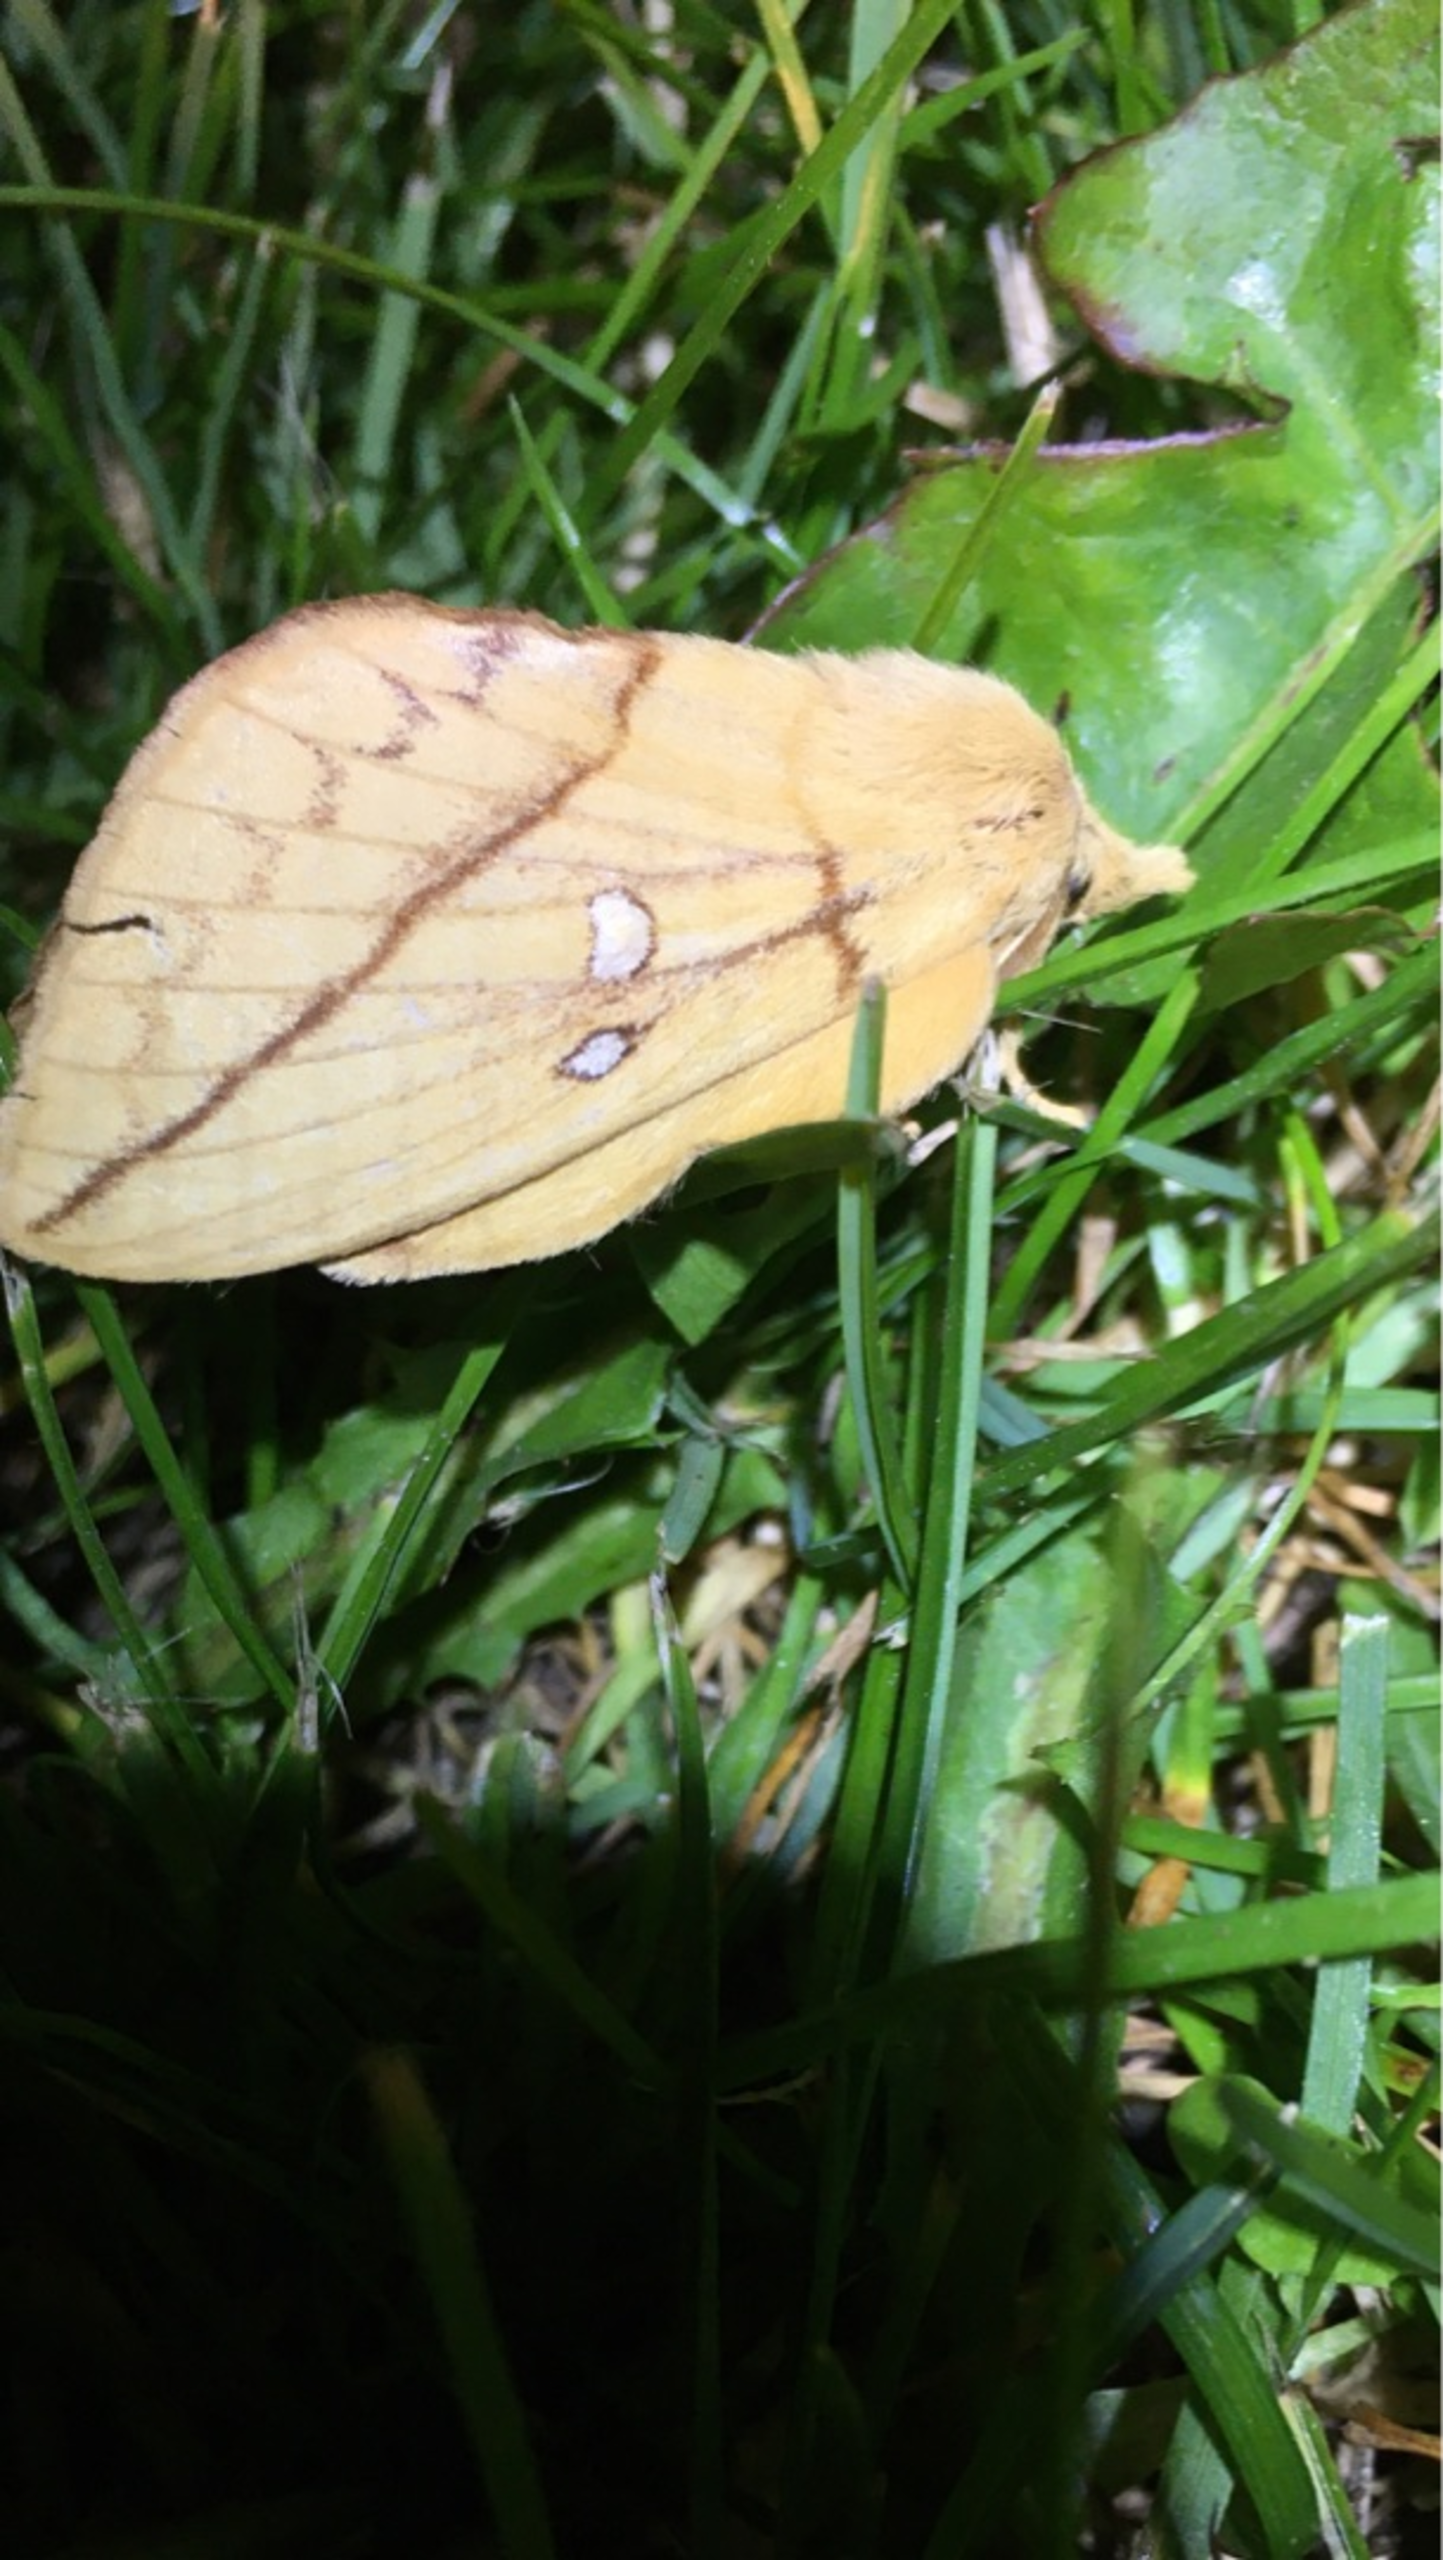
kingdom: Animalia
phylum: Arthropoda
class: Insecta
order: Lepidoptera
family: Lasiocampidae
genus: Euthrix
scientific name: Euthrix potatoria
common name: Græsspinder
